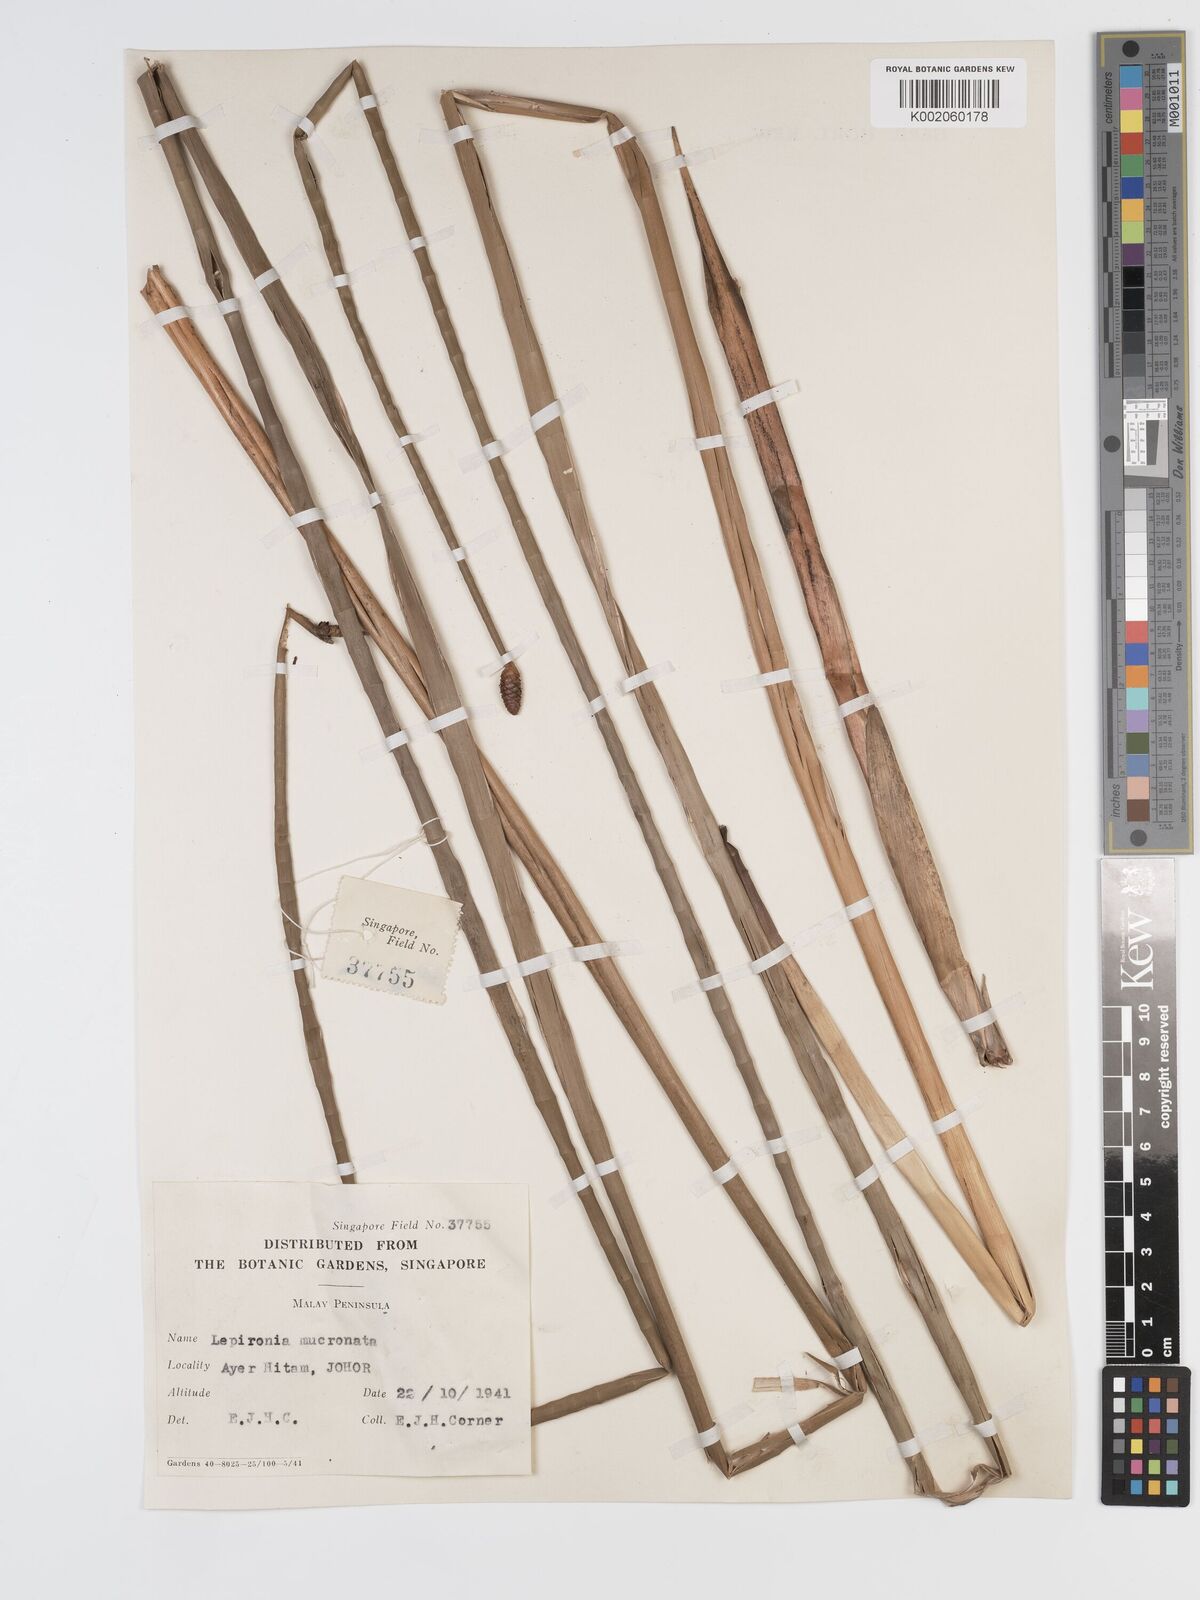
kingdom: Plantae
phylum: Tracheophyta
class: Liliopsida
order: Poales
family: Cyperaceae
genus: Lepironia
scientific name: Lepironia articulata
